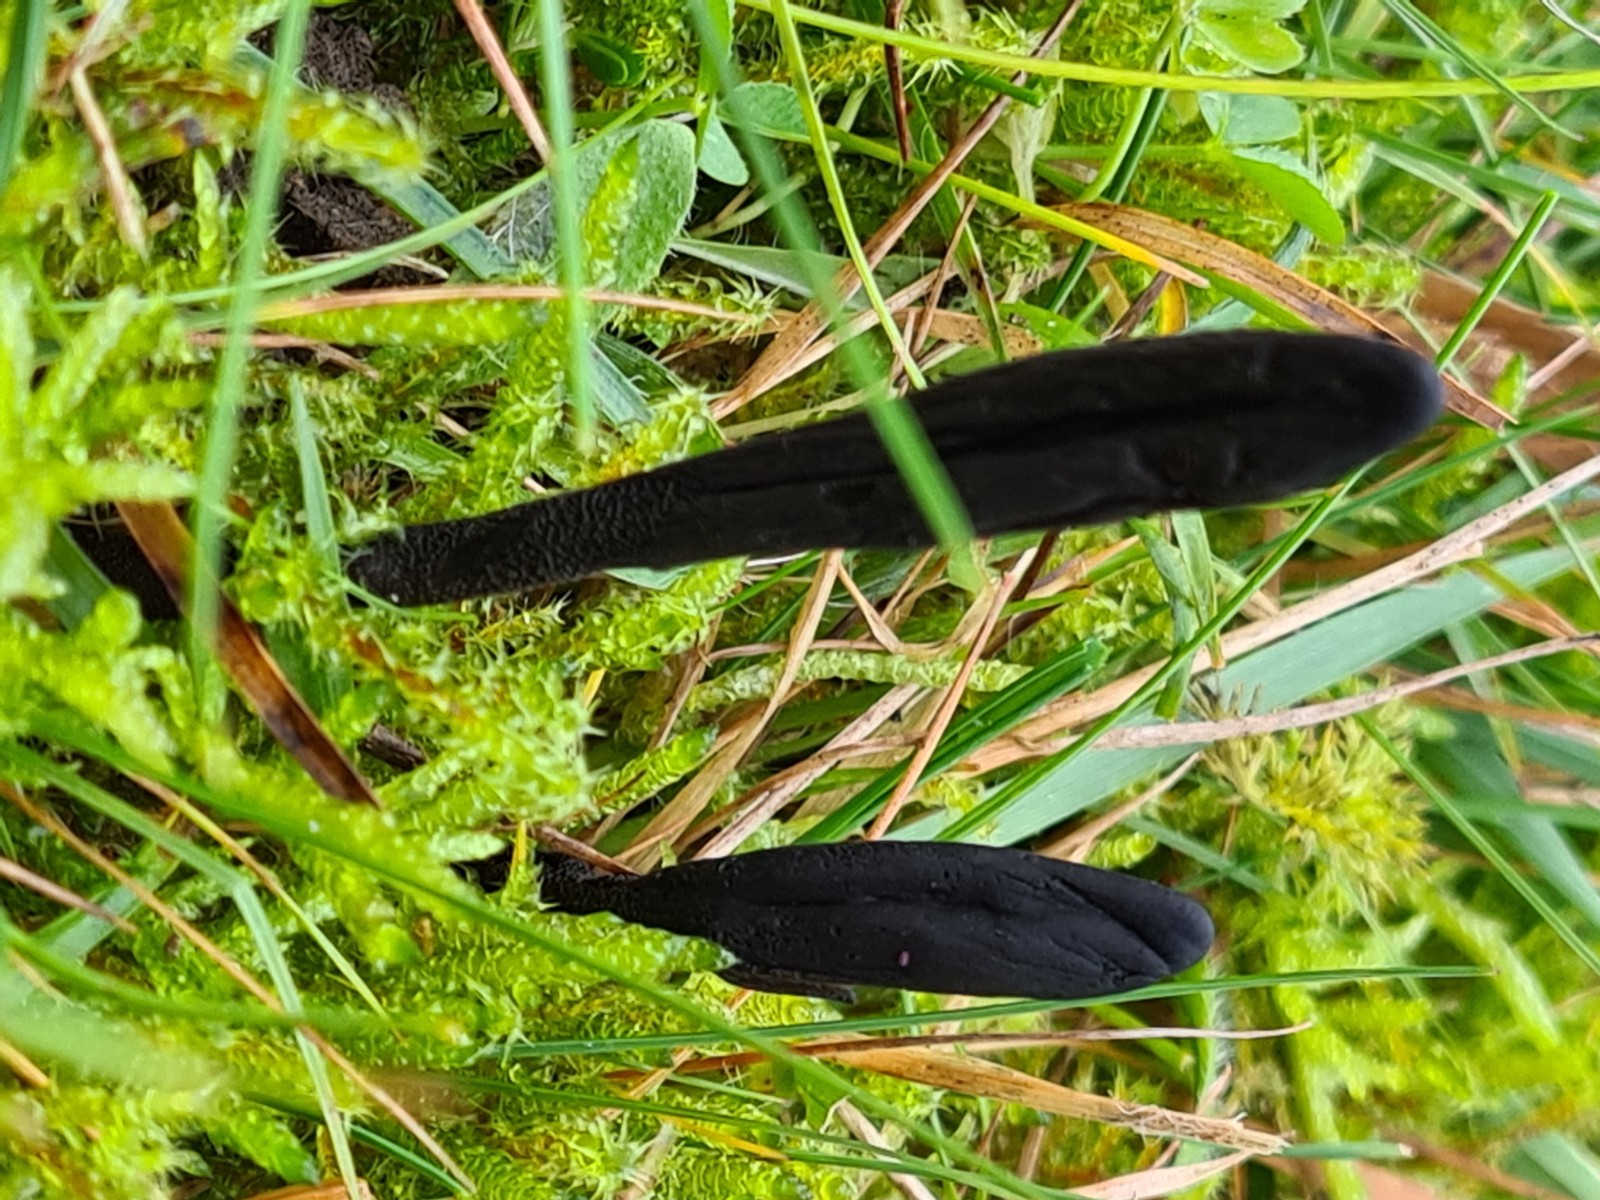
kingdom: Fungi
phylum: Ascomycota
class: Geoglossomycetes
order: Geoglossales
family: Geoglossaceae
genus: Geoglossum
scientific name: Geoglossum
